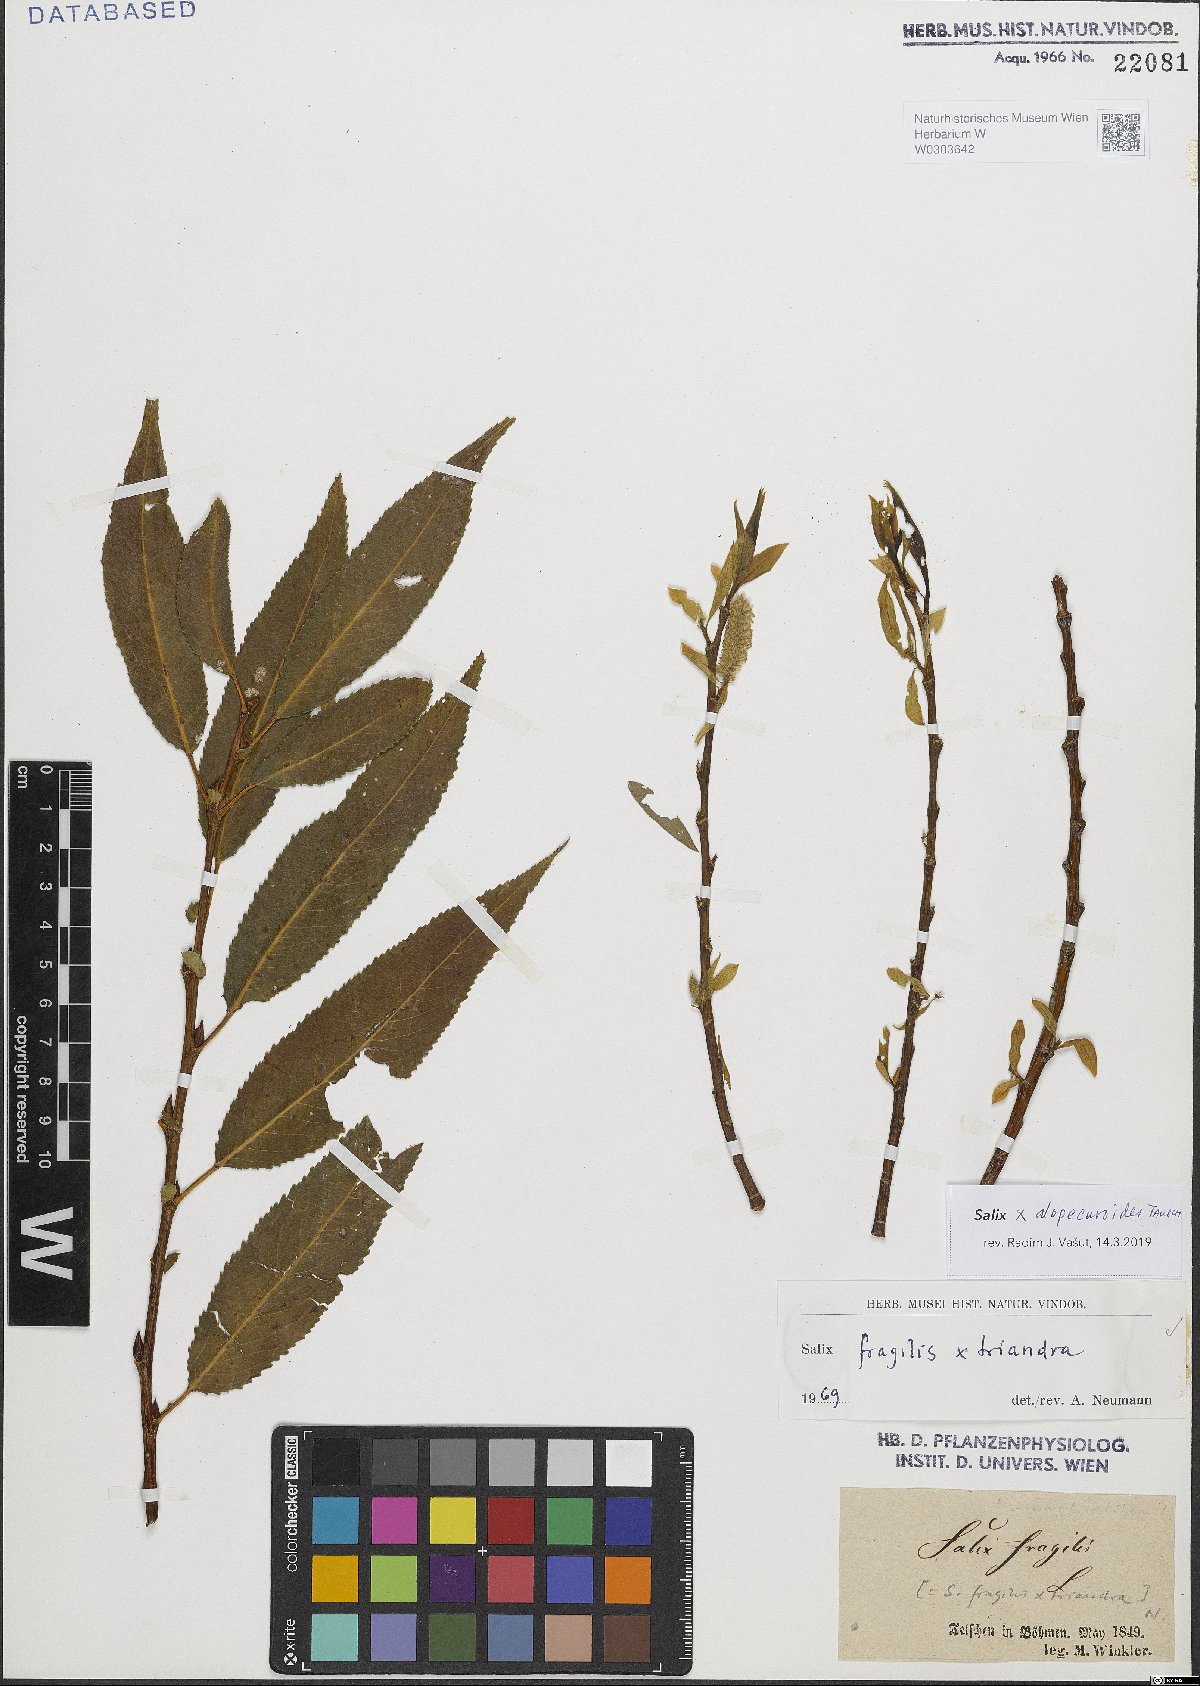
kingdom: Plantae
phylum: Tracheophyta
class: Magnoliopsida
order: Malpighiales
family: Salicaceae
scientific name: Salicaceae
